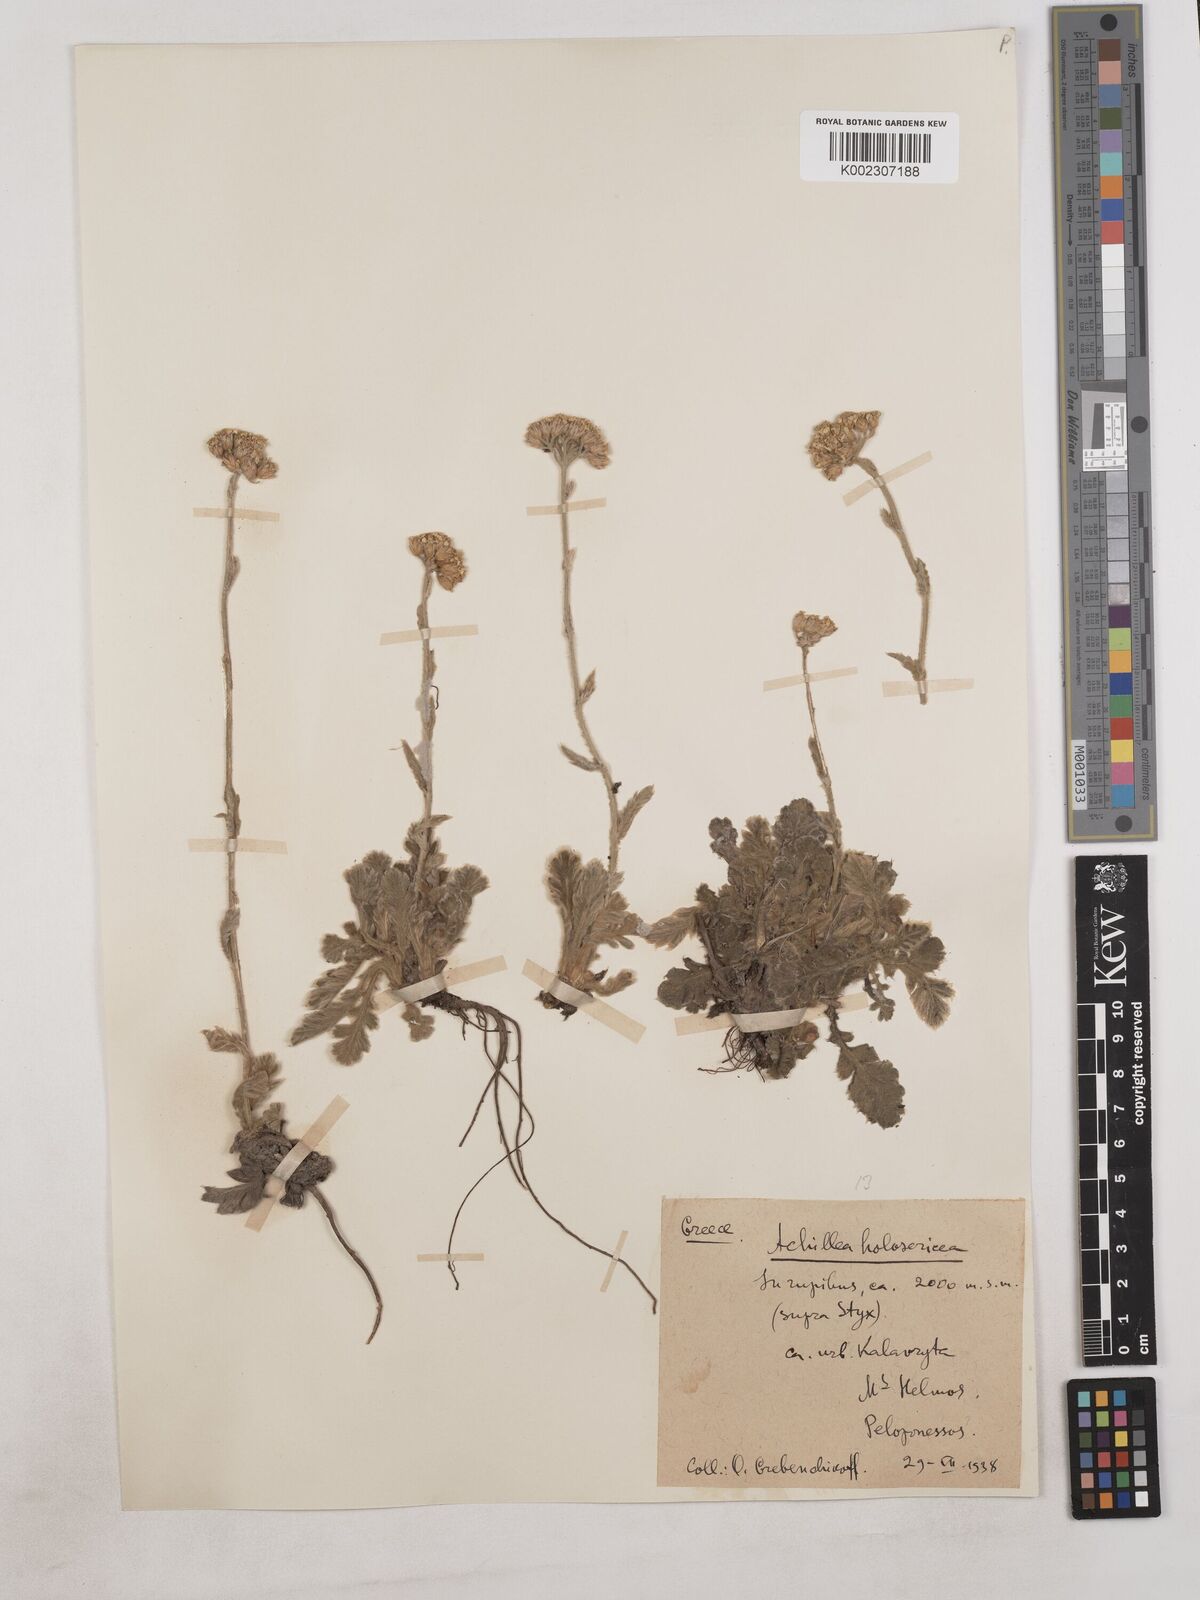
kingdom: Plantae
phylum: Tracheophyta
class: Magnoliopsida
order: Asterales
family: Asteraceae
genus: Achillea
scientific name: Achillea holosericea
